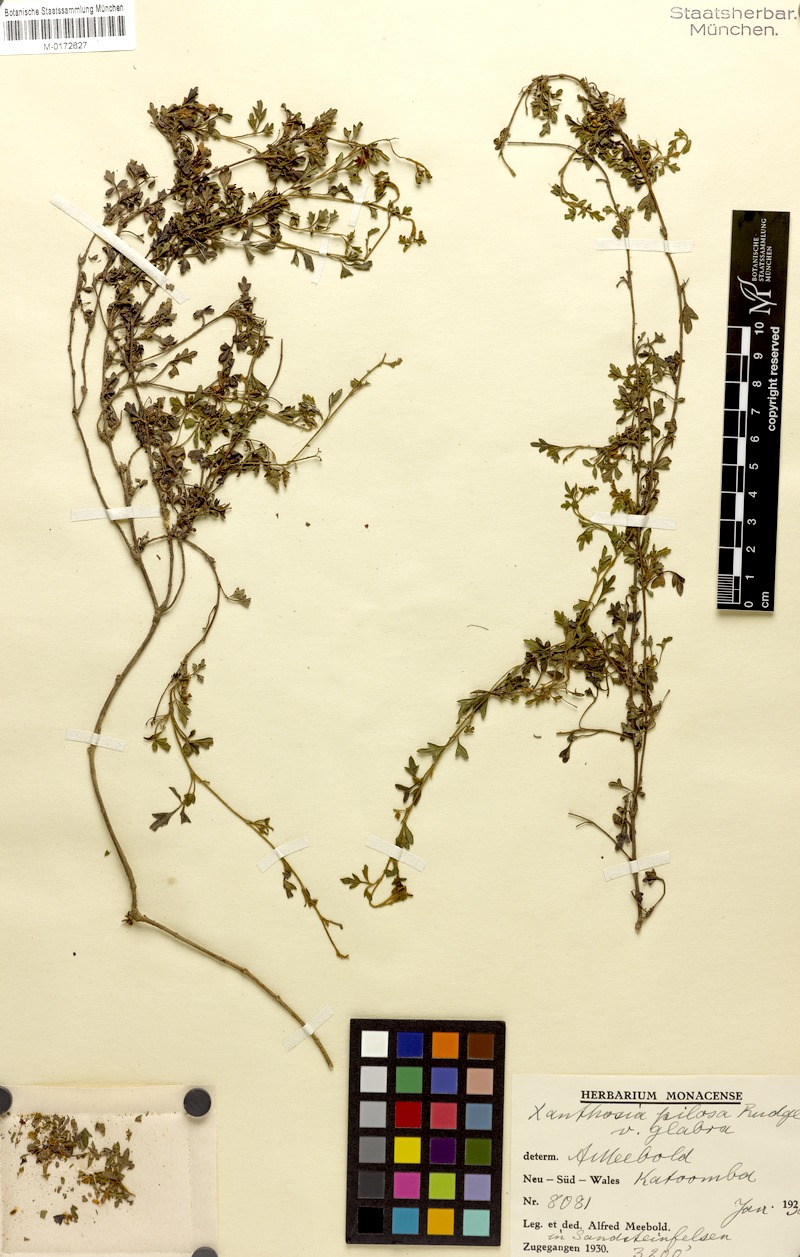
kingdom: Plantae
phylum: Tracheophyta
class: Magnoliopsida
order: Apiales
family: Apiaceae
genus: Xanthosia
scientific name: Xanthosia pilosa
